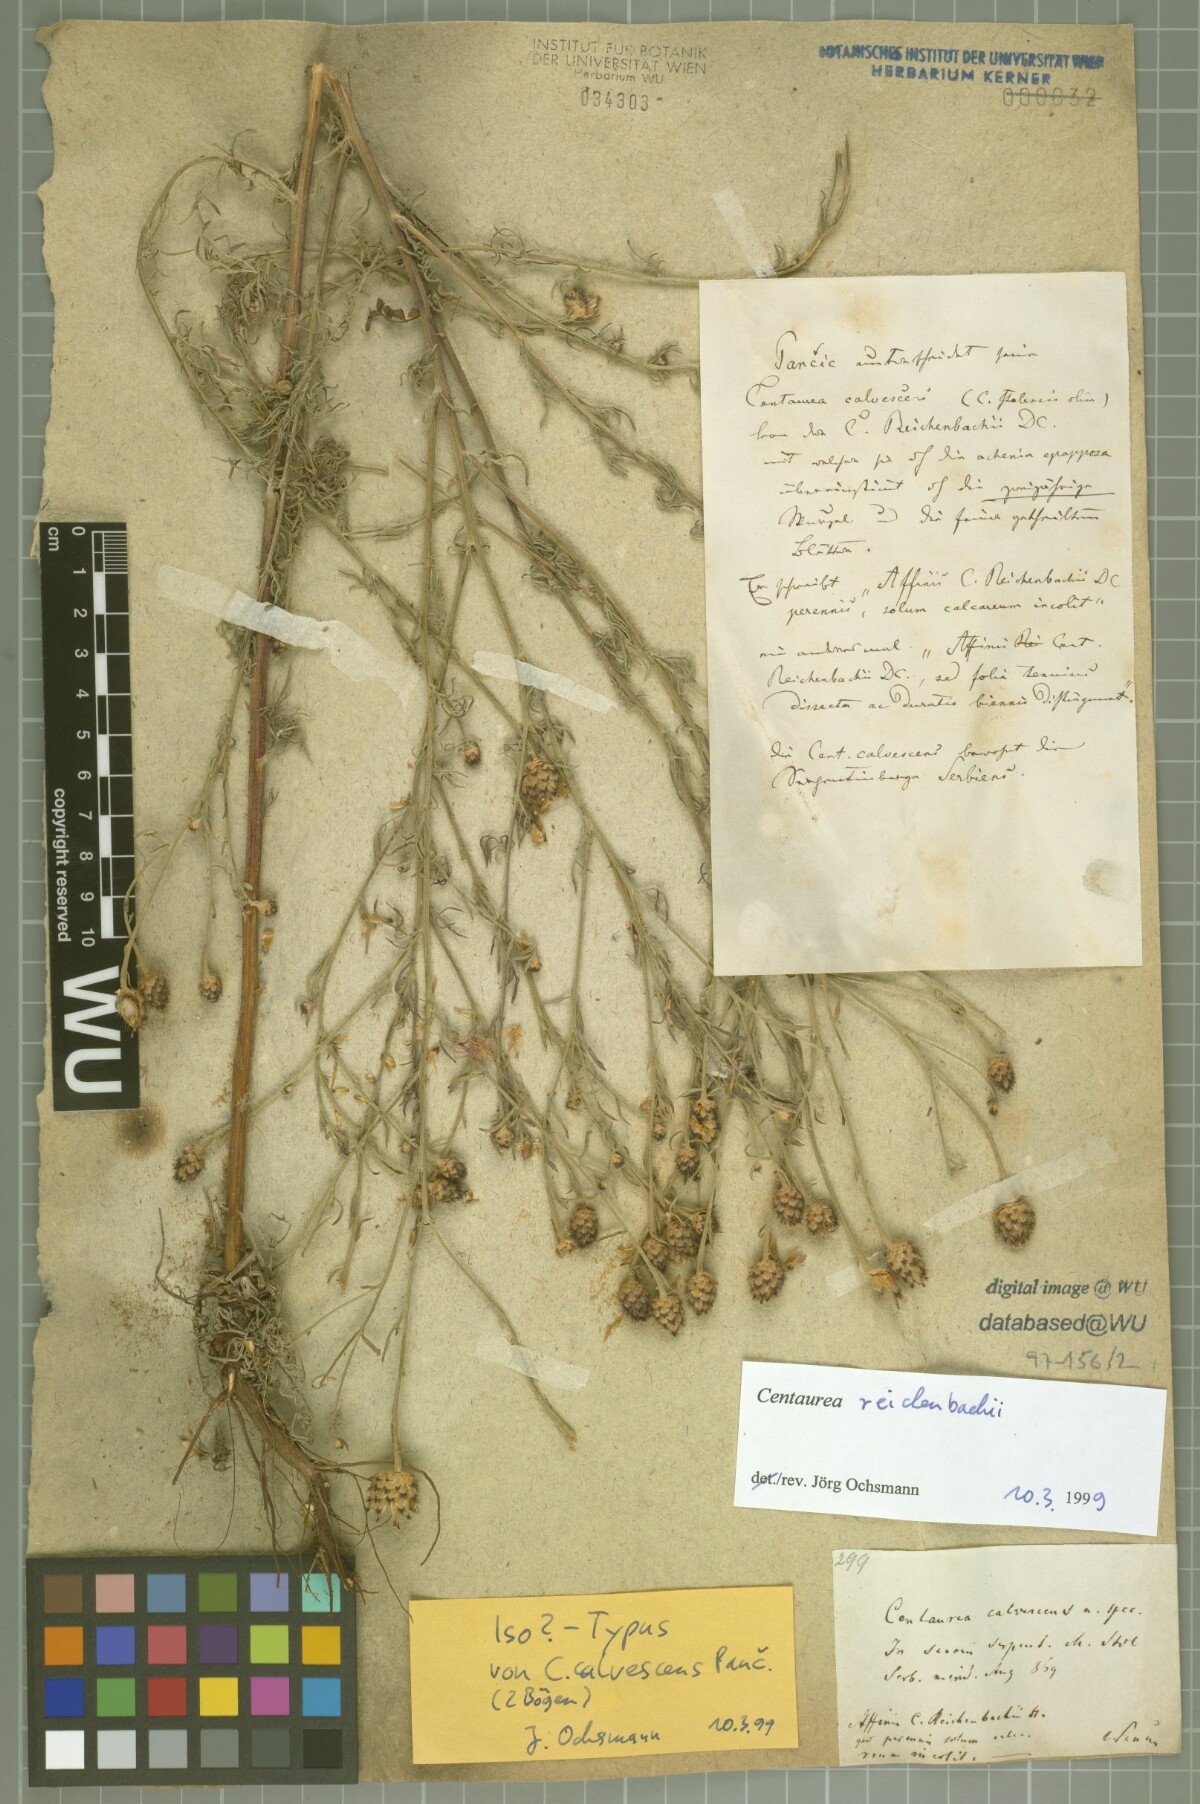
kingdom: Plantae
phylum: Tracheophyta
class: Magnoliopsida
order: Asterales
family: Asteraceae
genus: Centaurea
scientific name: Centaurea reichenbachii
